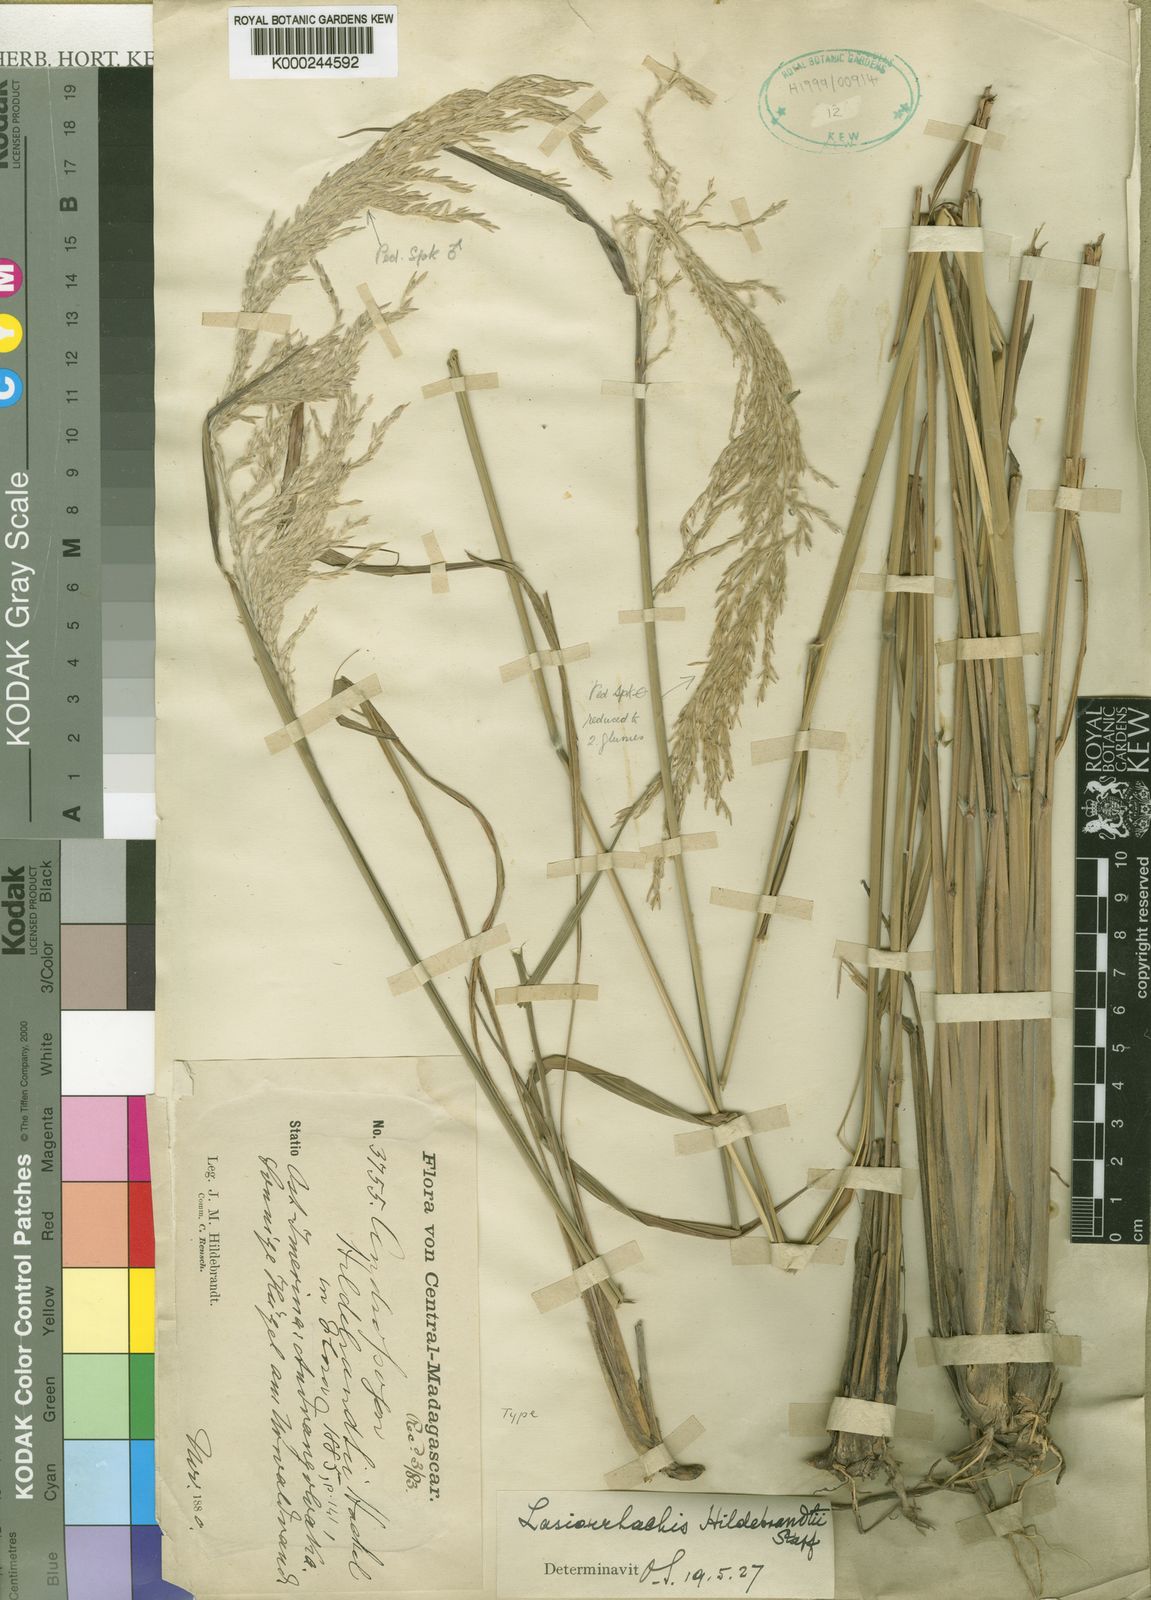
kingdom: Plantae
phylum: Tracheophyta
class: Liliopsida
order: Poales
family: Poaceae
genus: Lasiorhachis
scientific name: Lasiorhachis hildebrandtii
